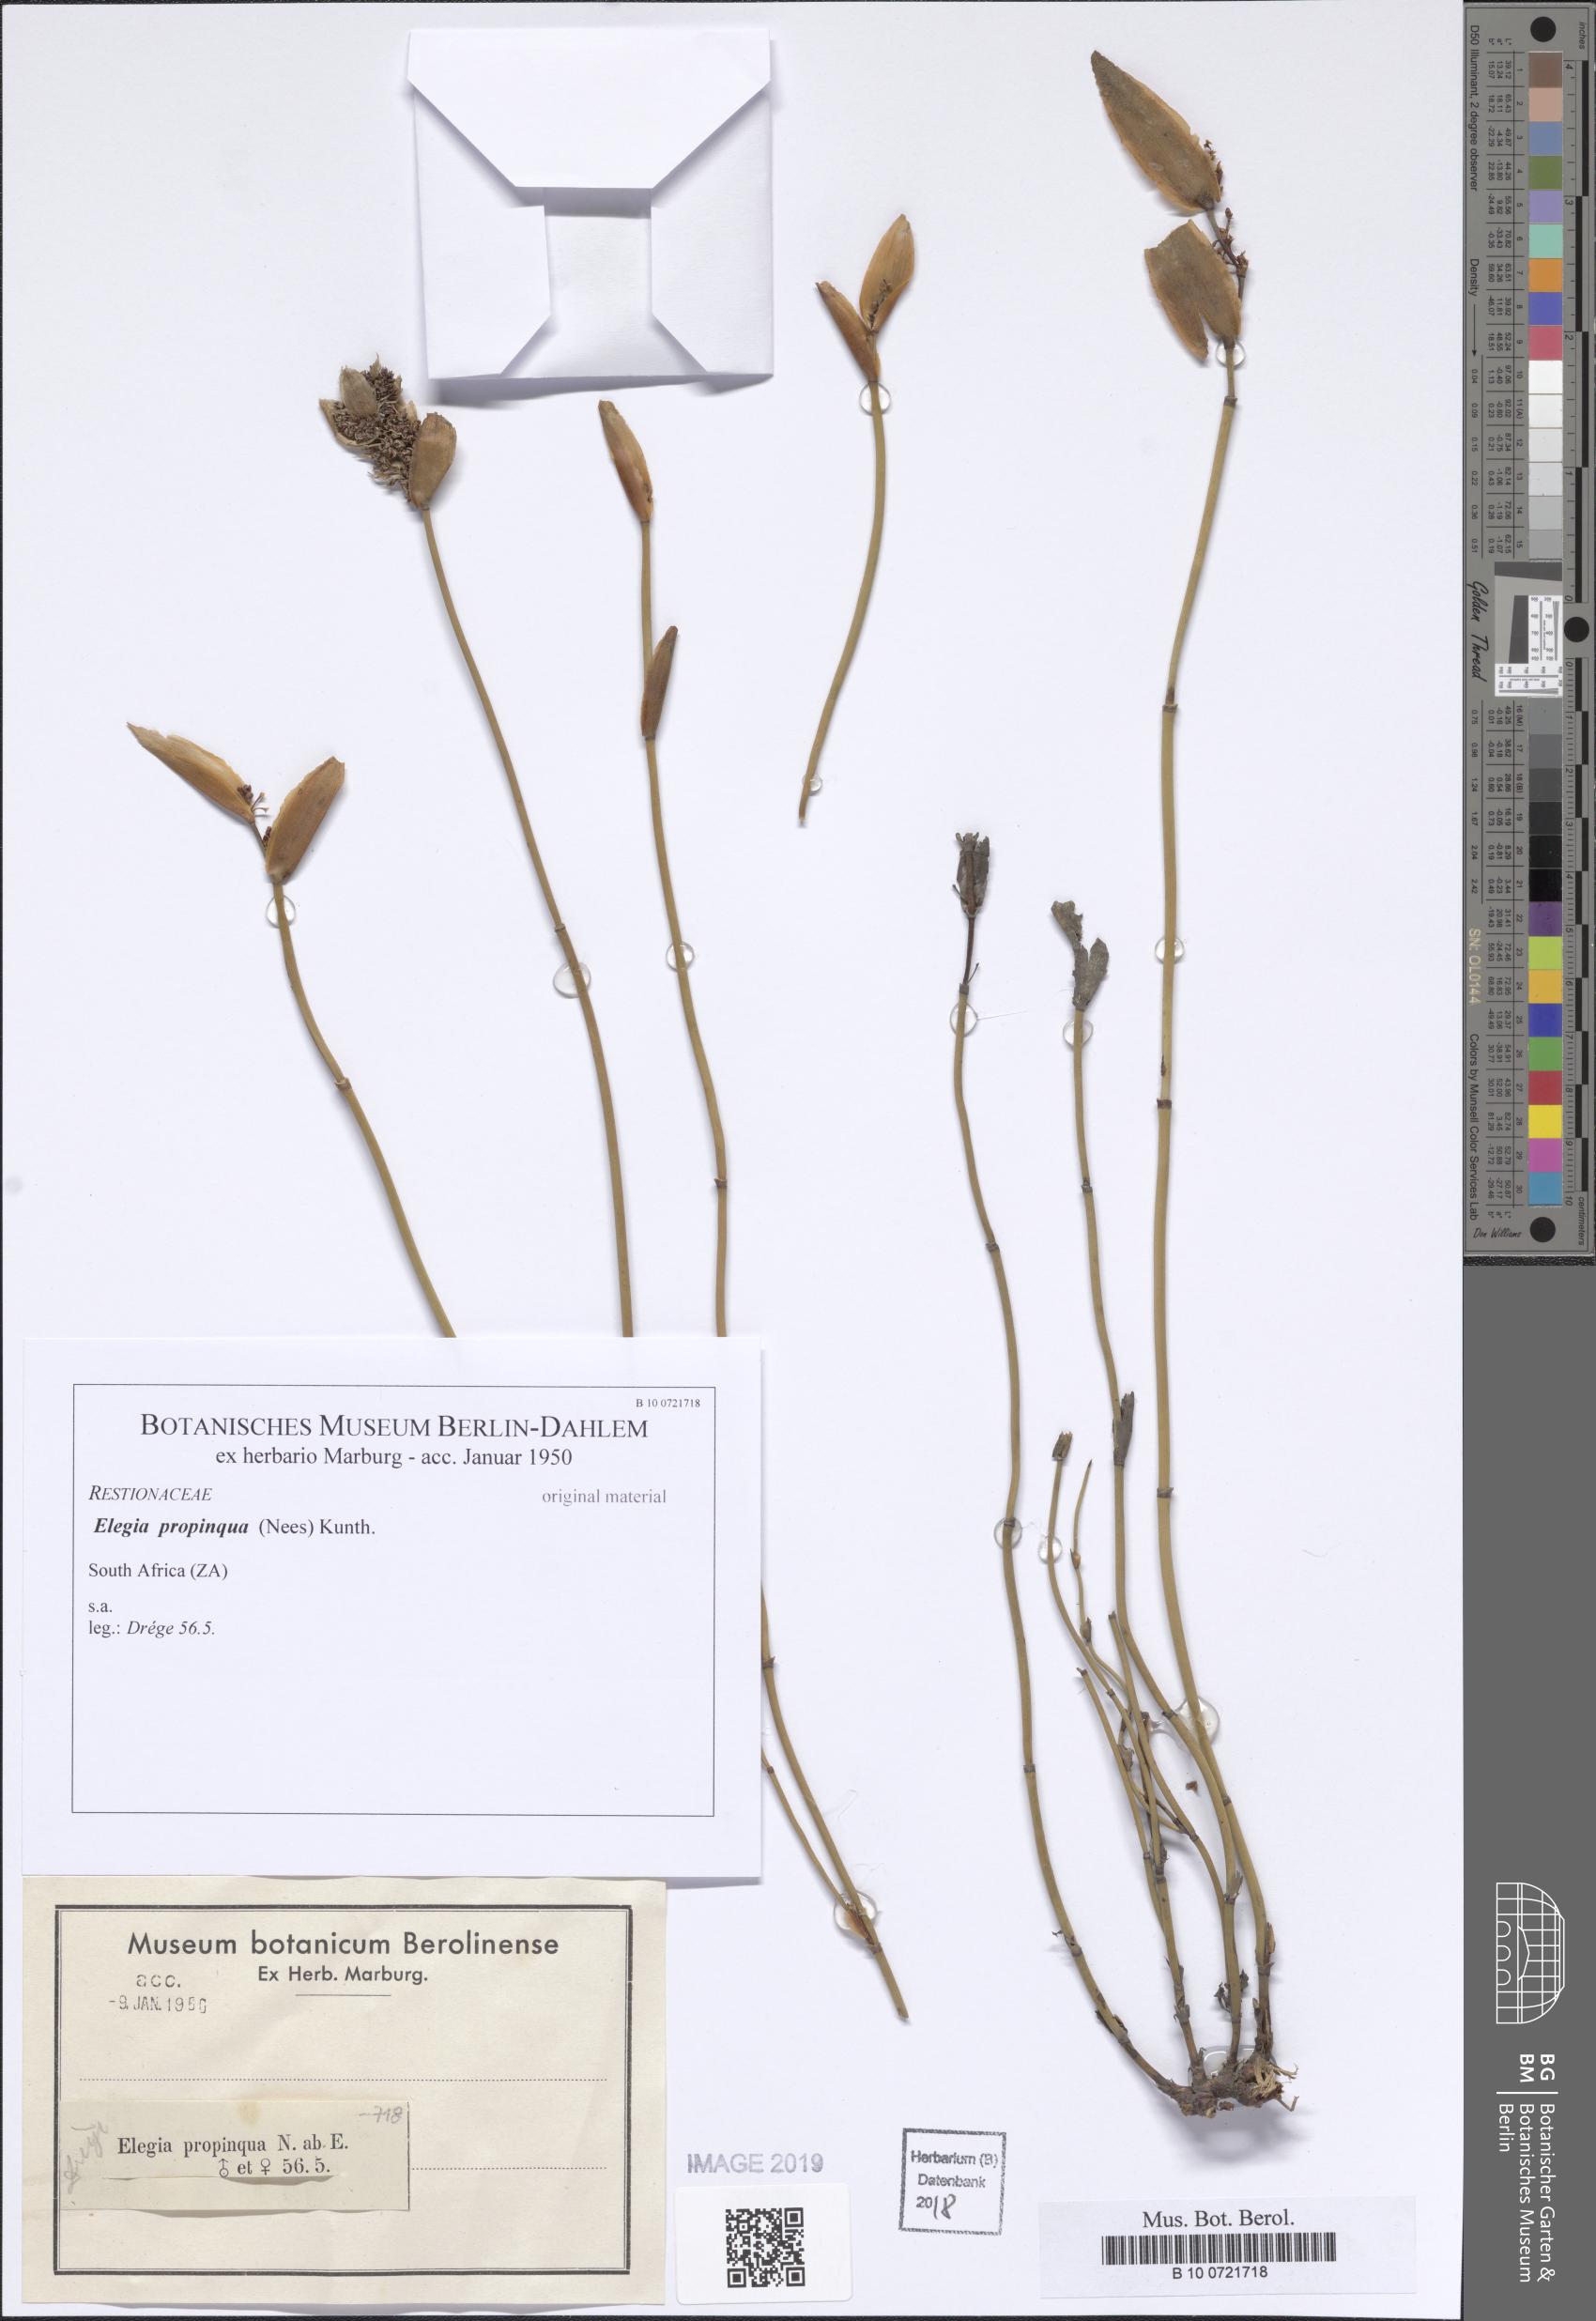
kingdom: Plantae
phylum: Tracheophyta
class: Liliopsida
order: Poales
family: Restionaceae
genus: Elegia
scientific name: Elegia juncea
